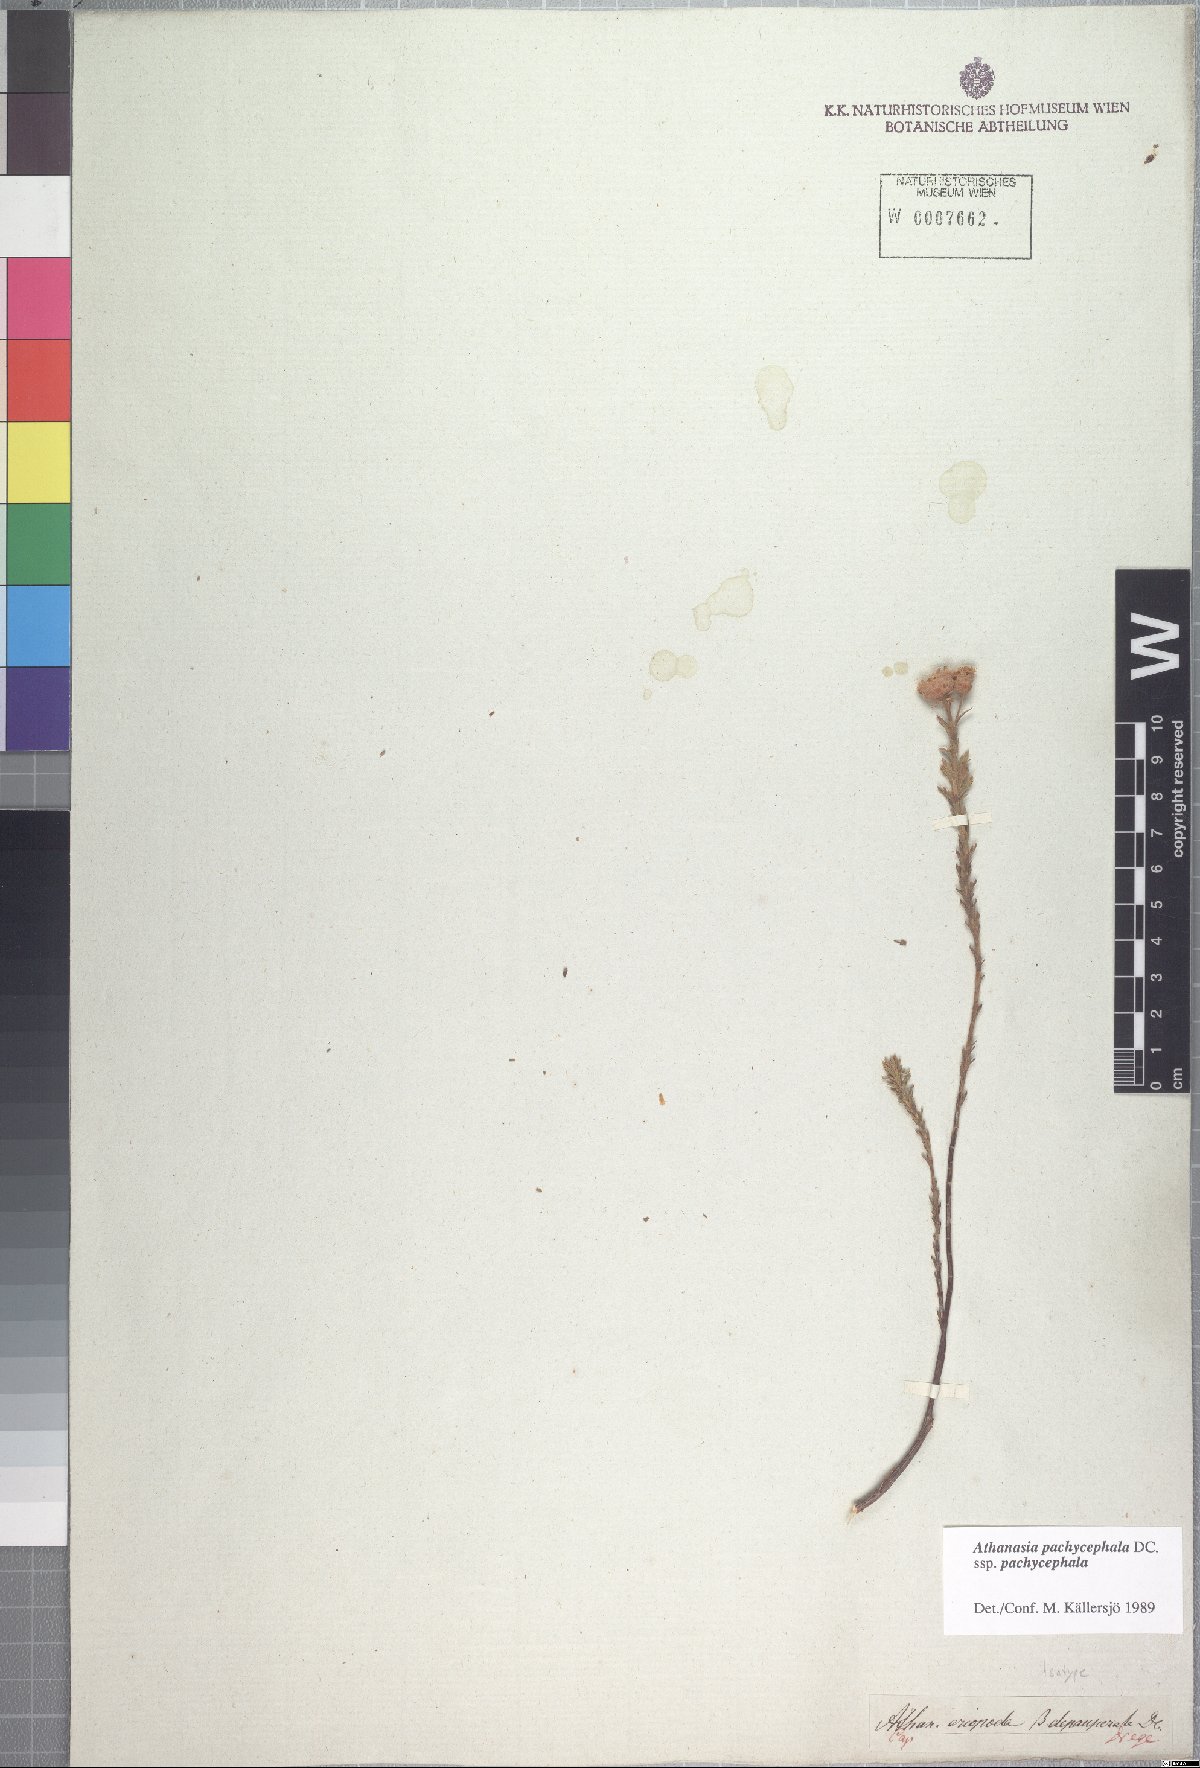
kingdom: Plantae
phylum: Tracheophyta
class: Magnoliopsida
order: Asterales
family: Asteraceae
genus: Athanasia
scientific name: Athanasia pachycephala
